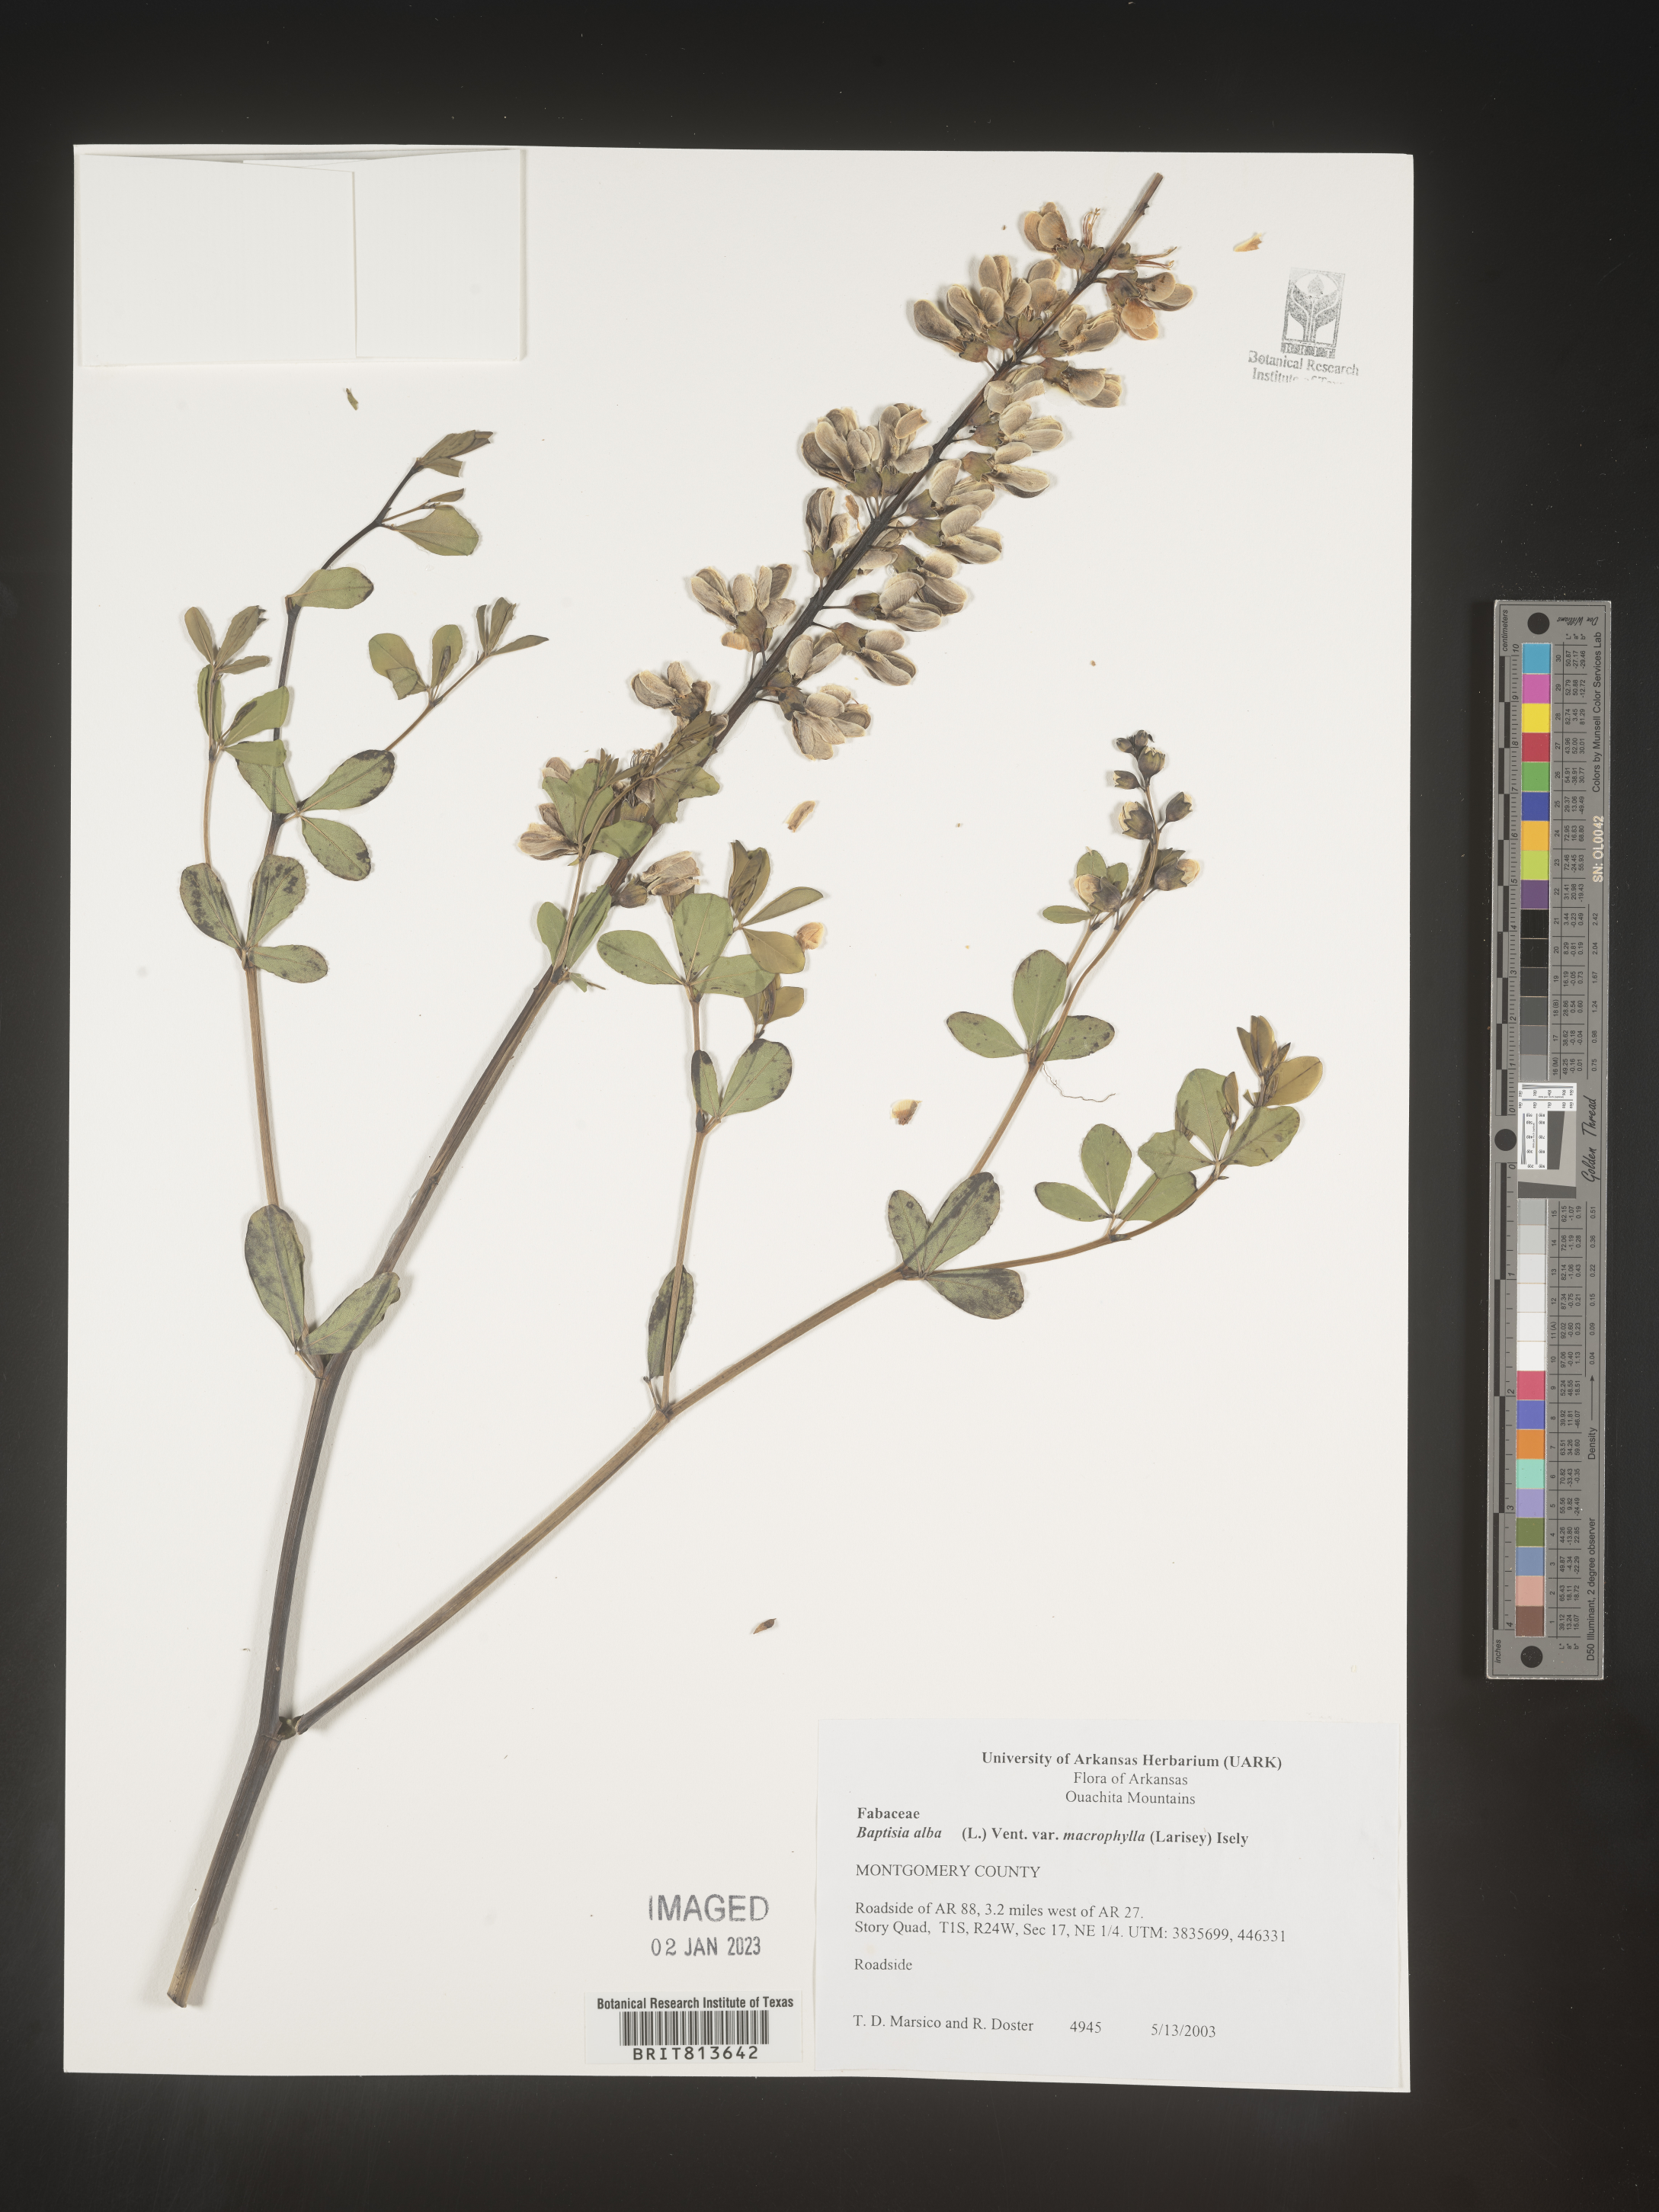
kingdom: Plantae
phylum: Tracheophyta
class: Magnoliopsida
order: Fabales
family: Fabaceae
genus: Baptisia
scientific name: Baptisia alba
